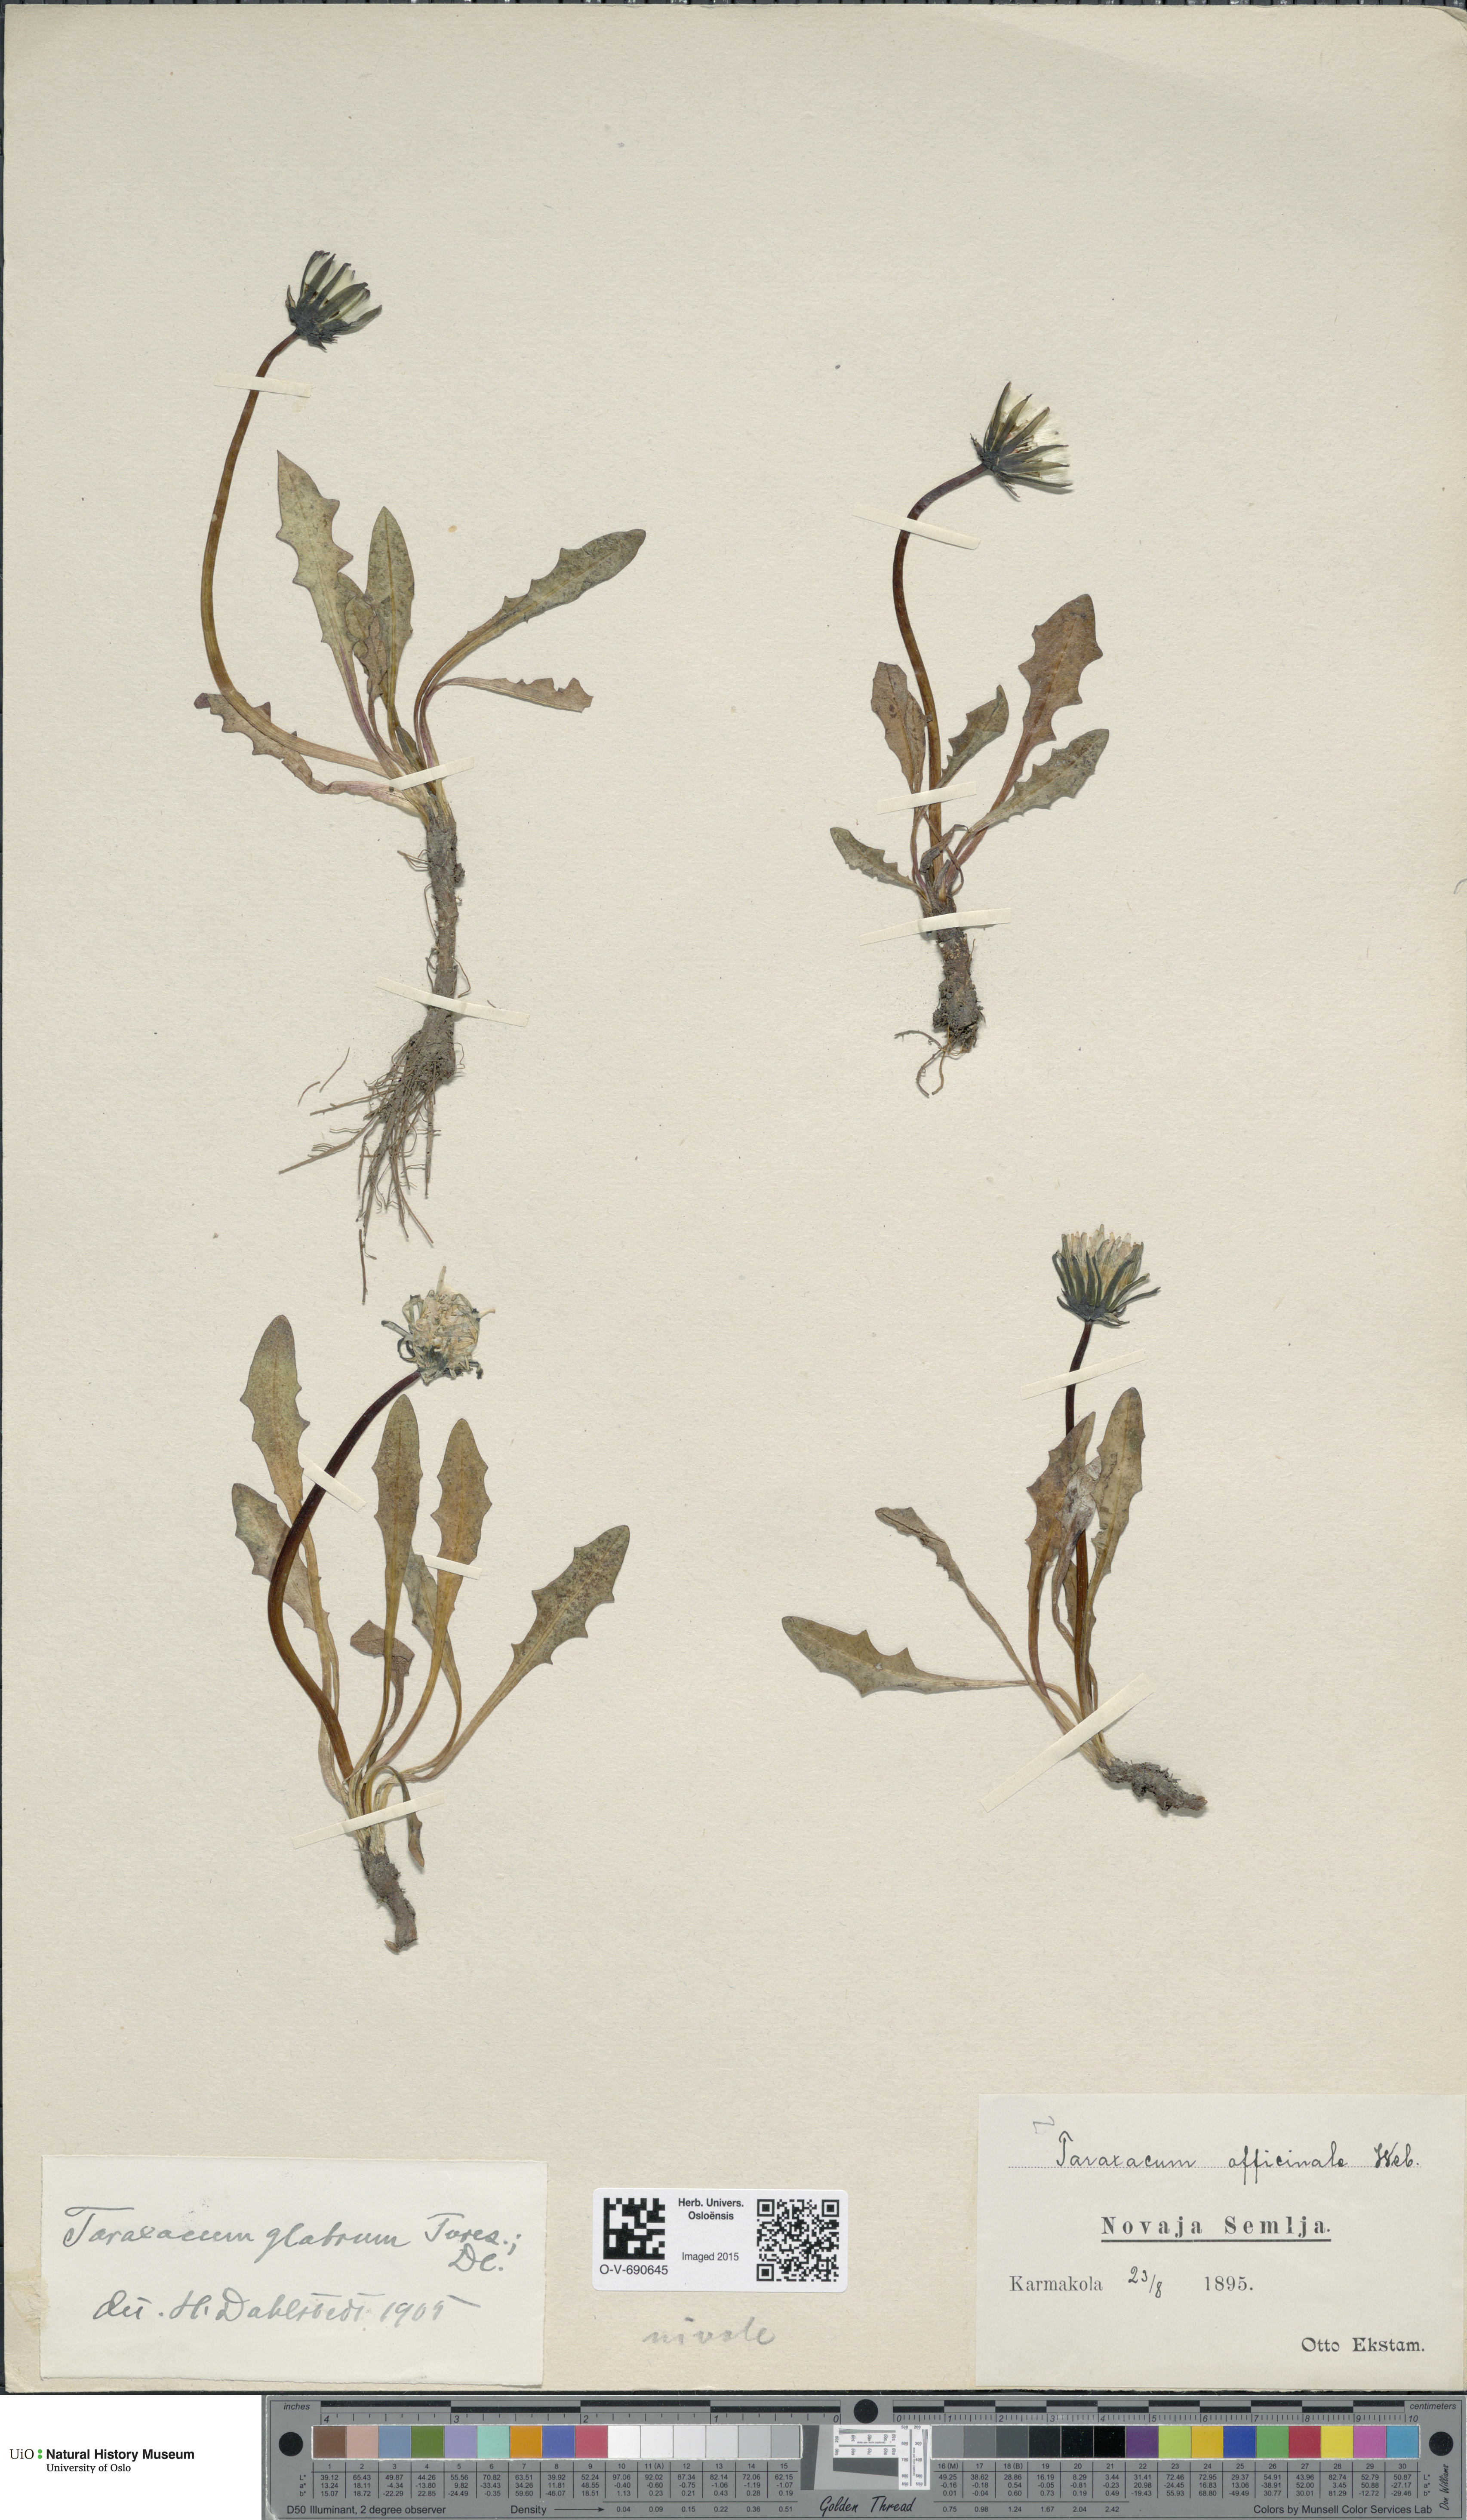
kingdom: Plantae
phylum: Tracheophyta
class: Magnoliopsida
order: Asterales
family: Asteraceae
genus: Taraxacum
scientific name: Taraxacum glabrum
